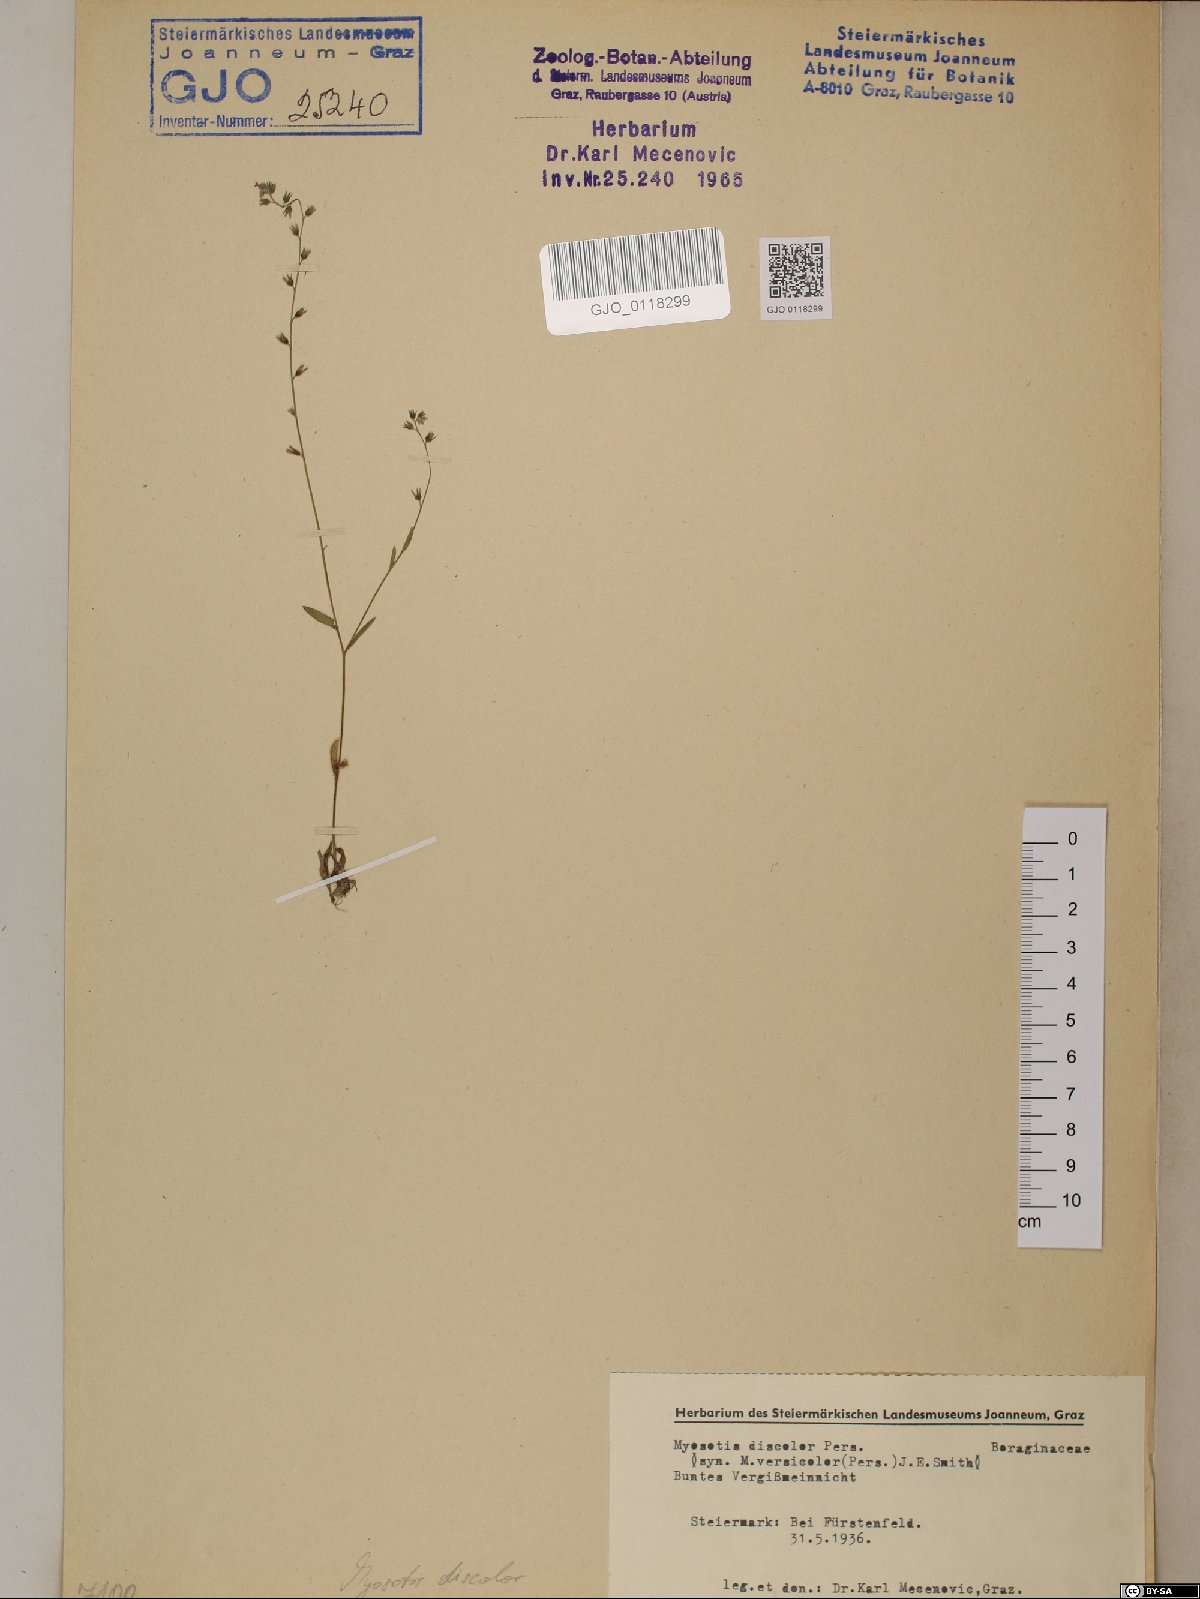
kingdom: Plantae
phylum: Tracheophyta
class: Magnoliopsida
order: Boraginales
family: Boraginaceae
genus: Myosotis
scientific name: Myosotis discolor
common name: Changing forget-me-not
